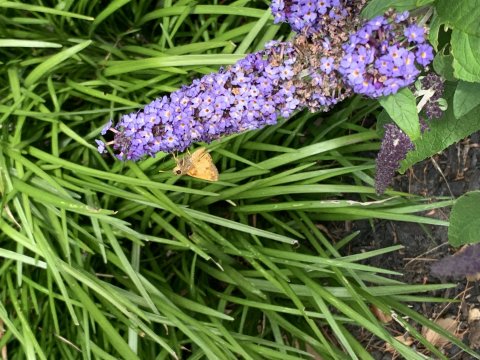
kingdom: Animalia
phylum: Arthropoda
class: Insecta
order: Lepidoptera
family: Hesperiidae
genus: Lon
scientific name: Lon zabulon
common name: Zabulon Skipper
